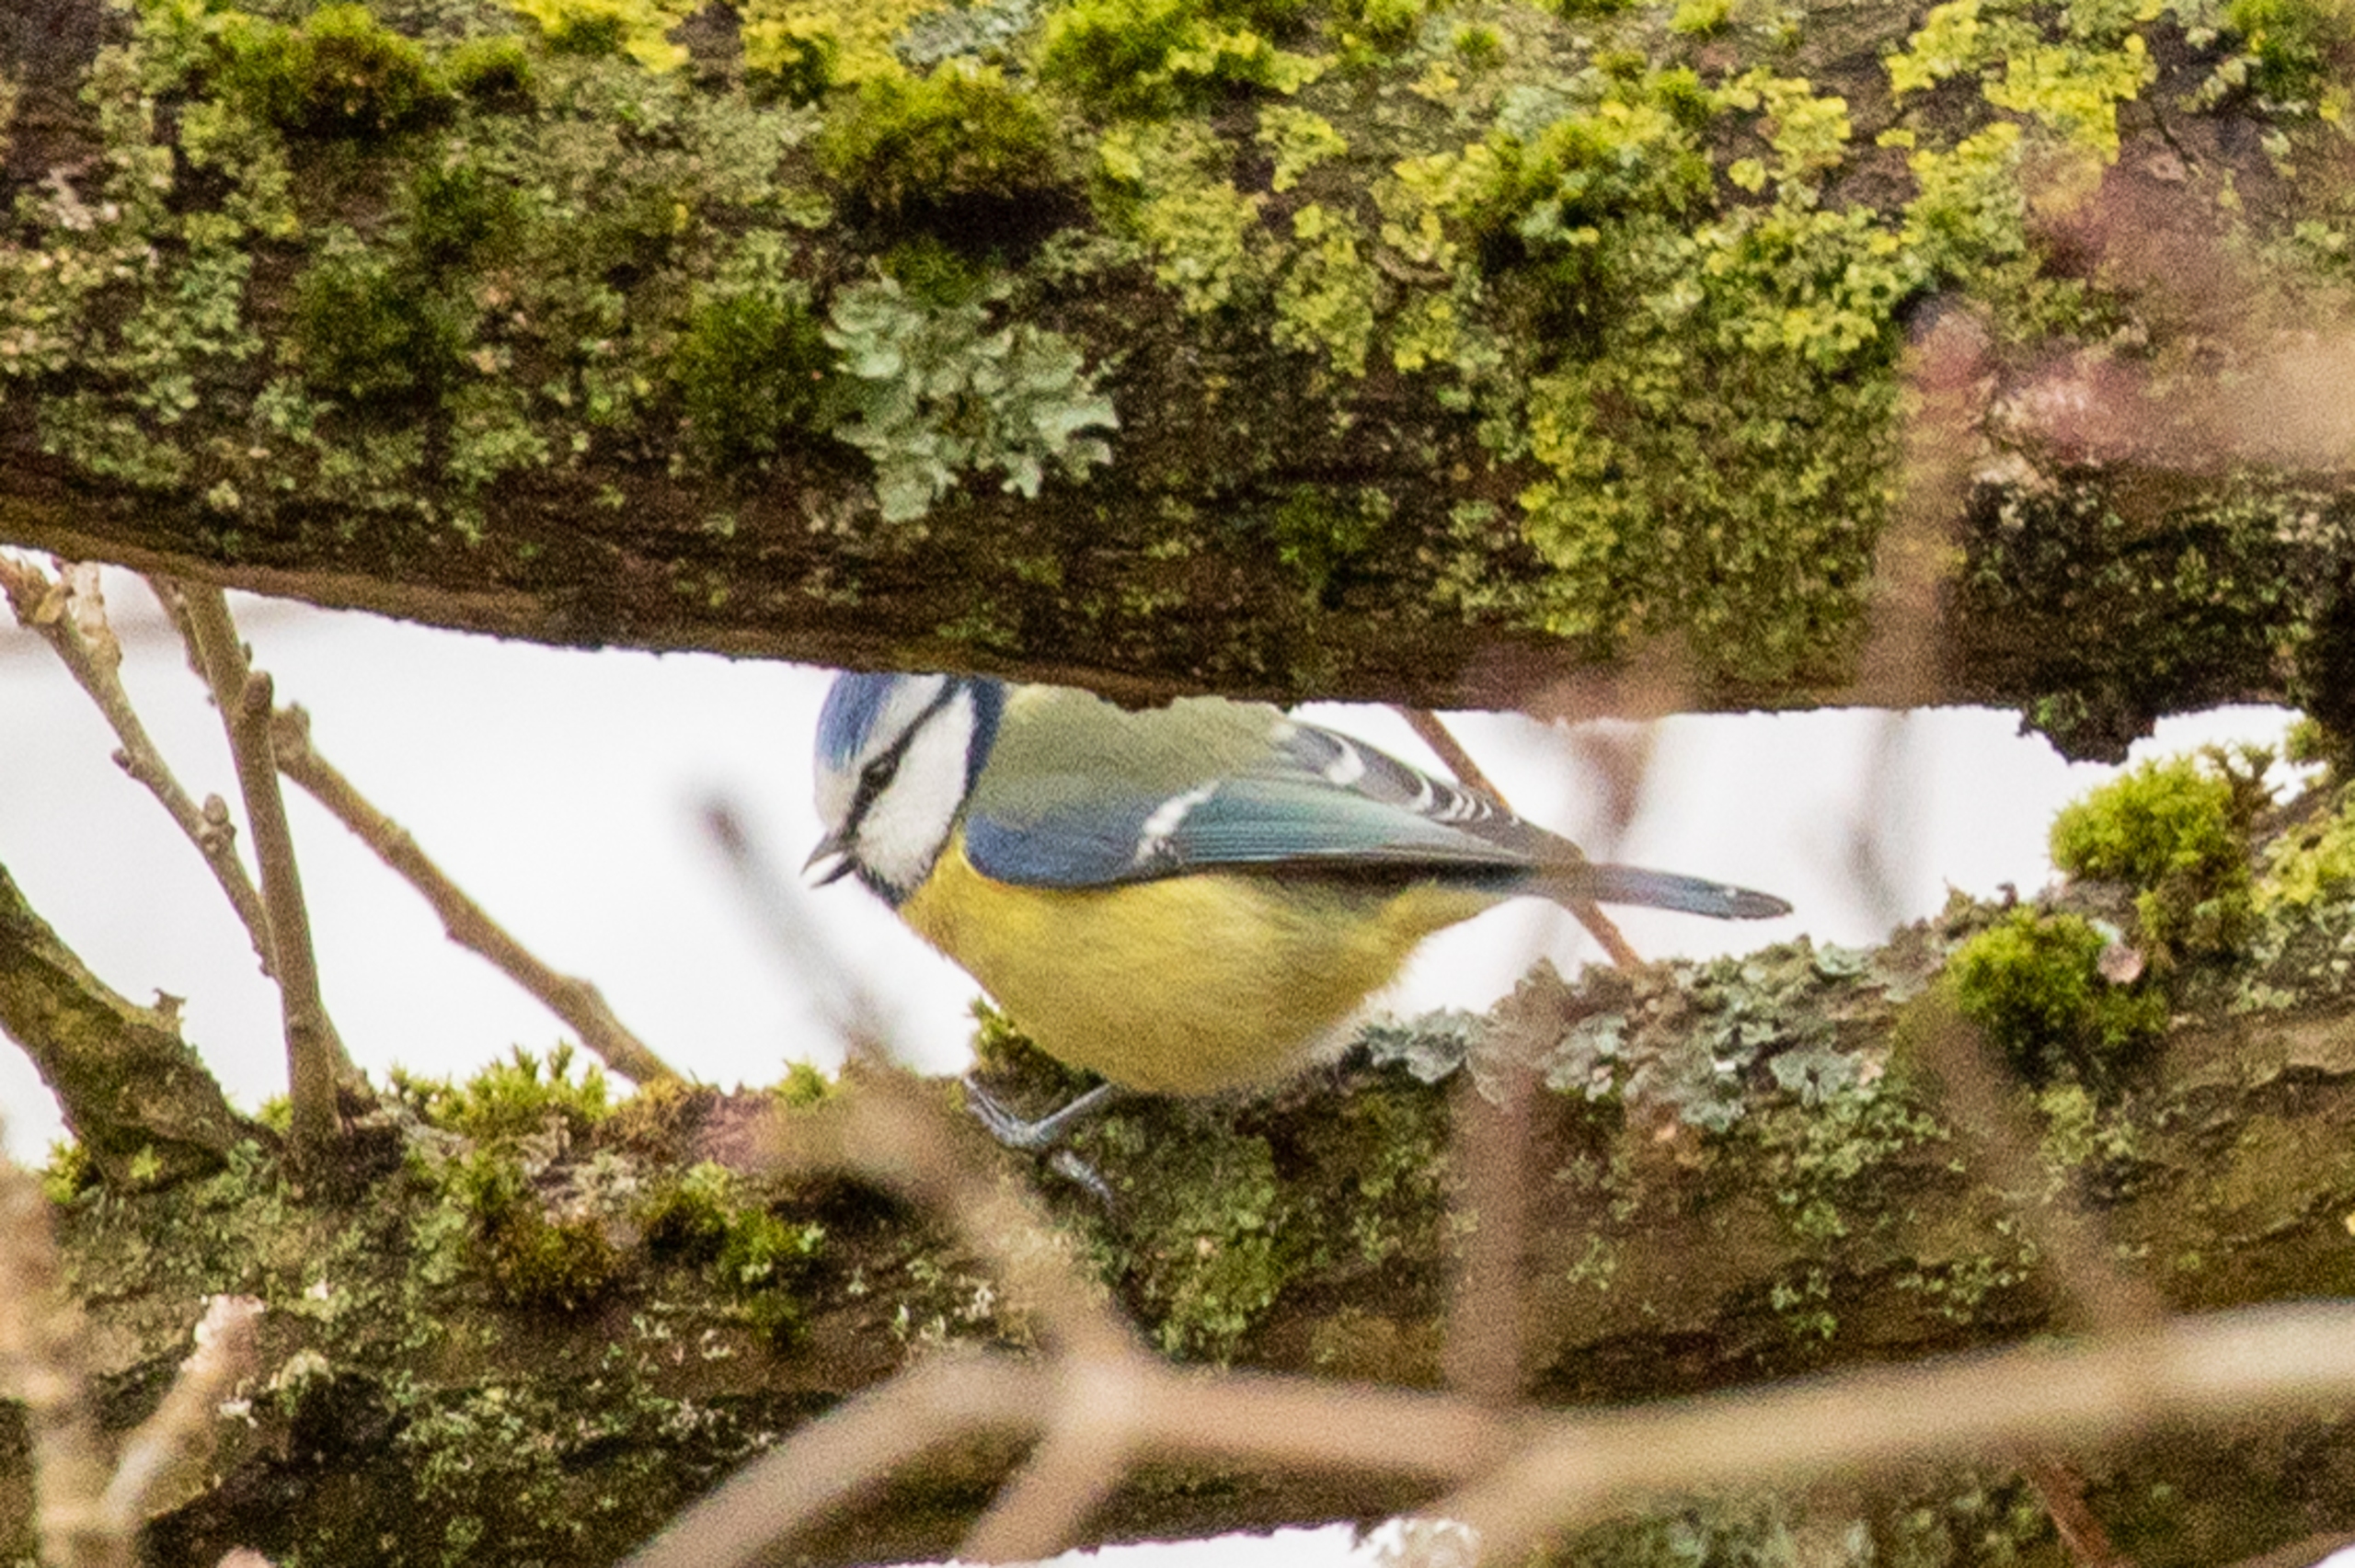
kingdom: Animalia
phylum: Chordata
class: Aves
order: Passeriformes
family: Paridae
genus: Cyanistes
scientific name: Cyanistes caeruleus
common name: Blåmejse
